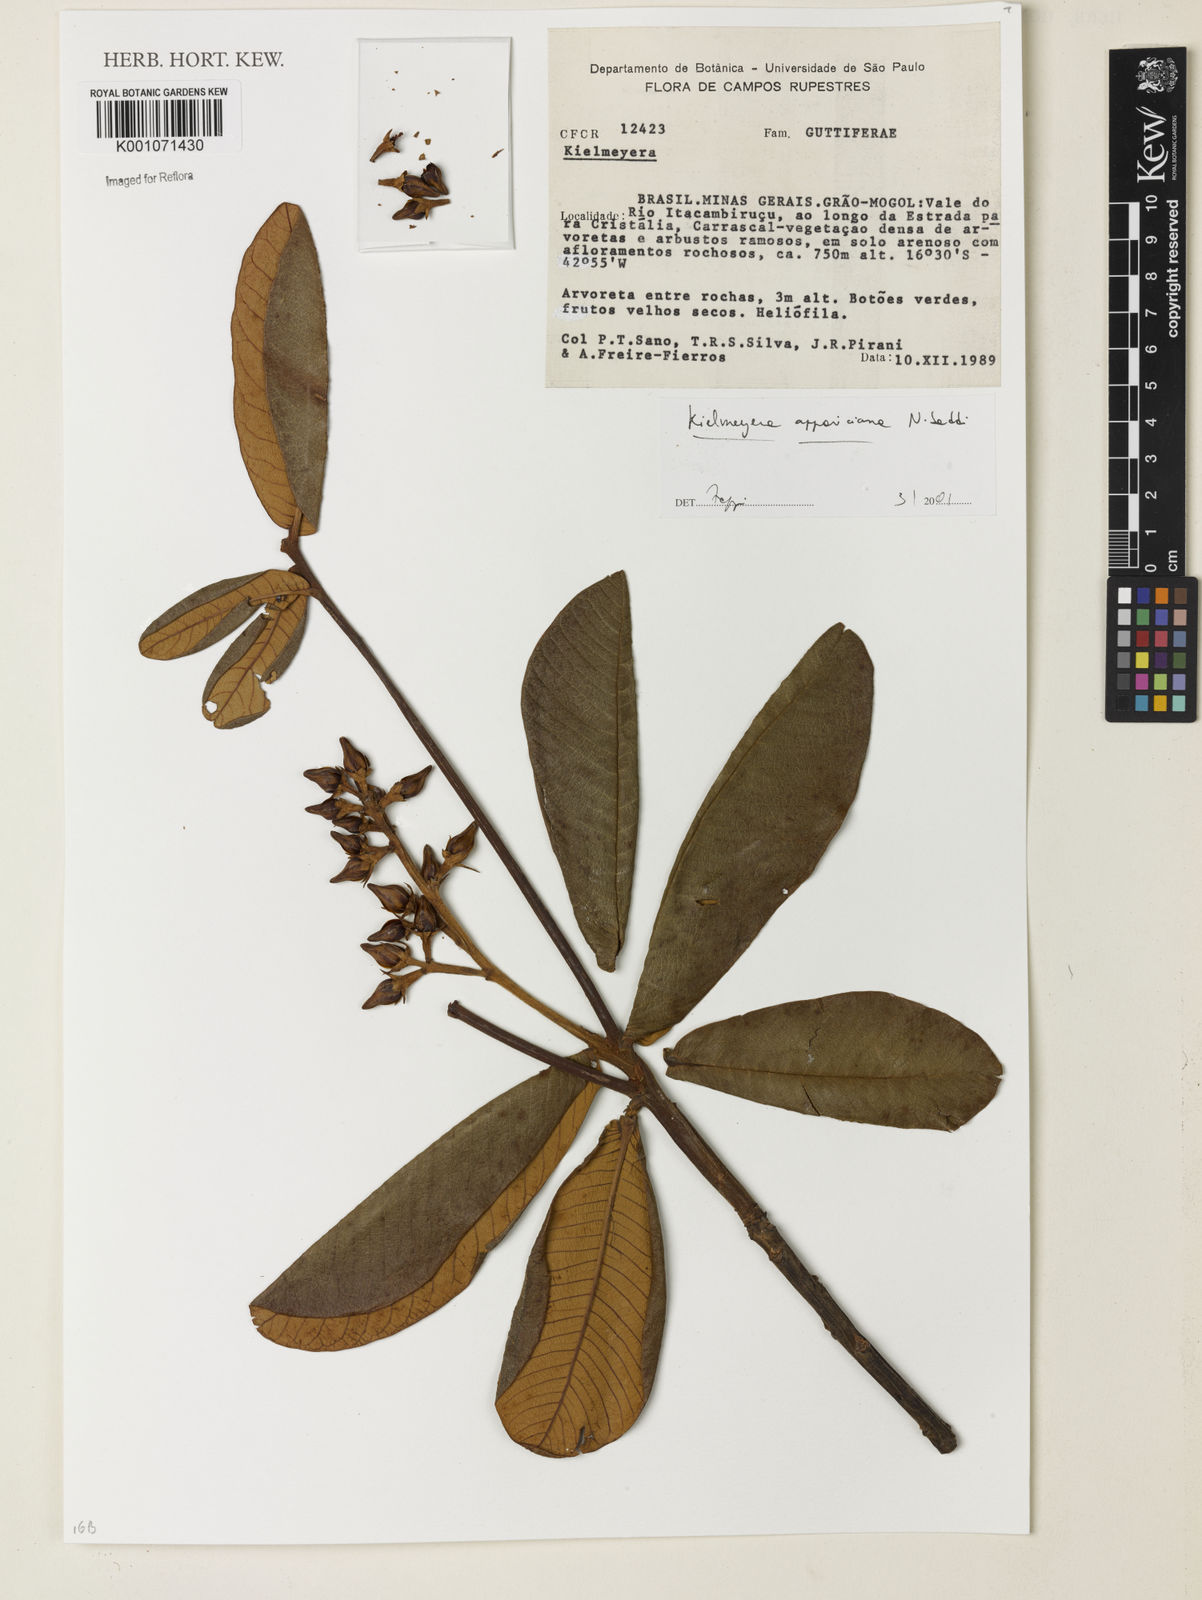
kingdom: Plantae
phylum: Tracheophyta
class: Magnoliopsida
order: Malpighiales
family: Calophyllaceae
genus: Kielmeyera
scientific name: Kielmeyera appariciana
